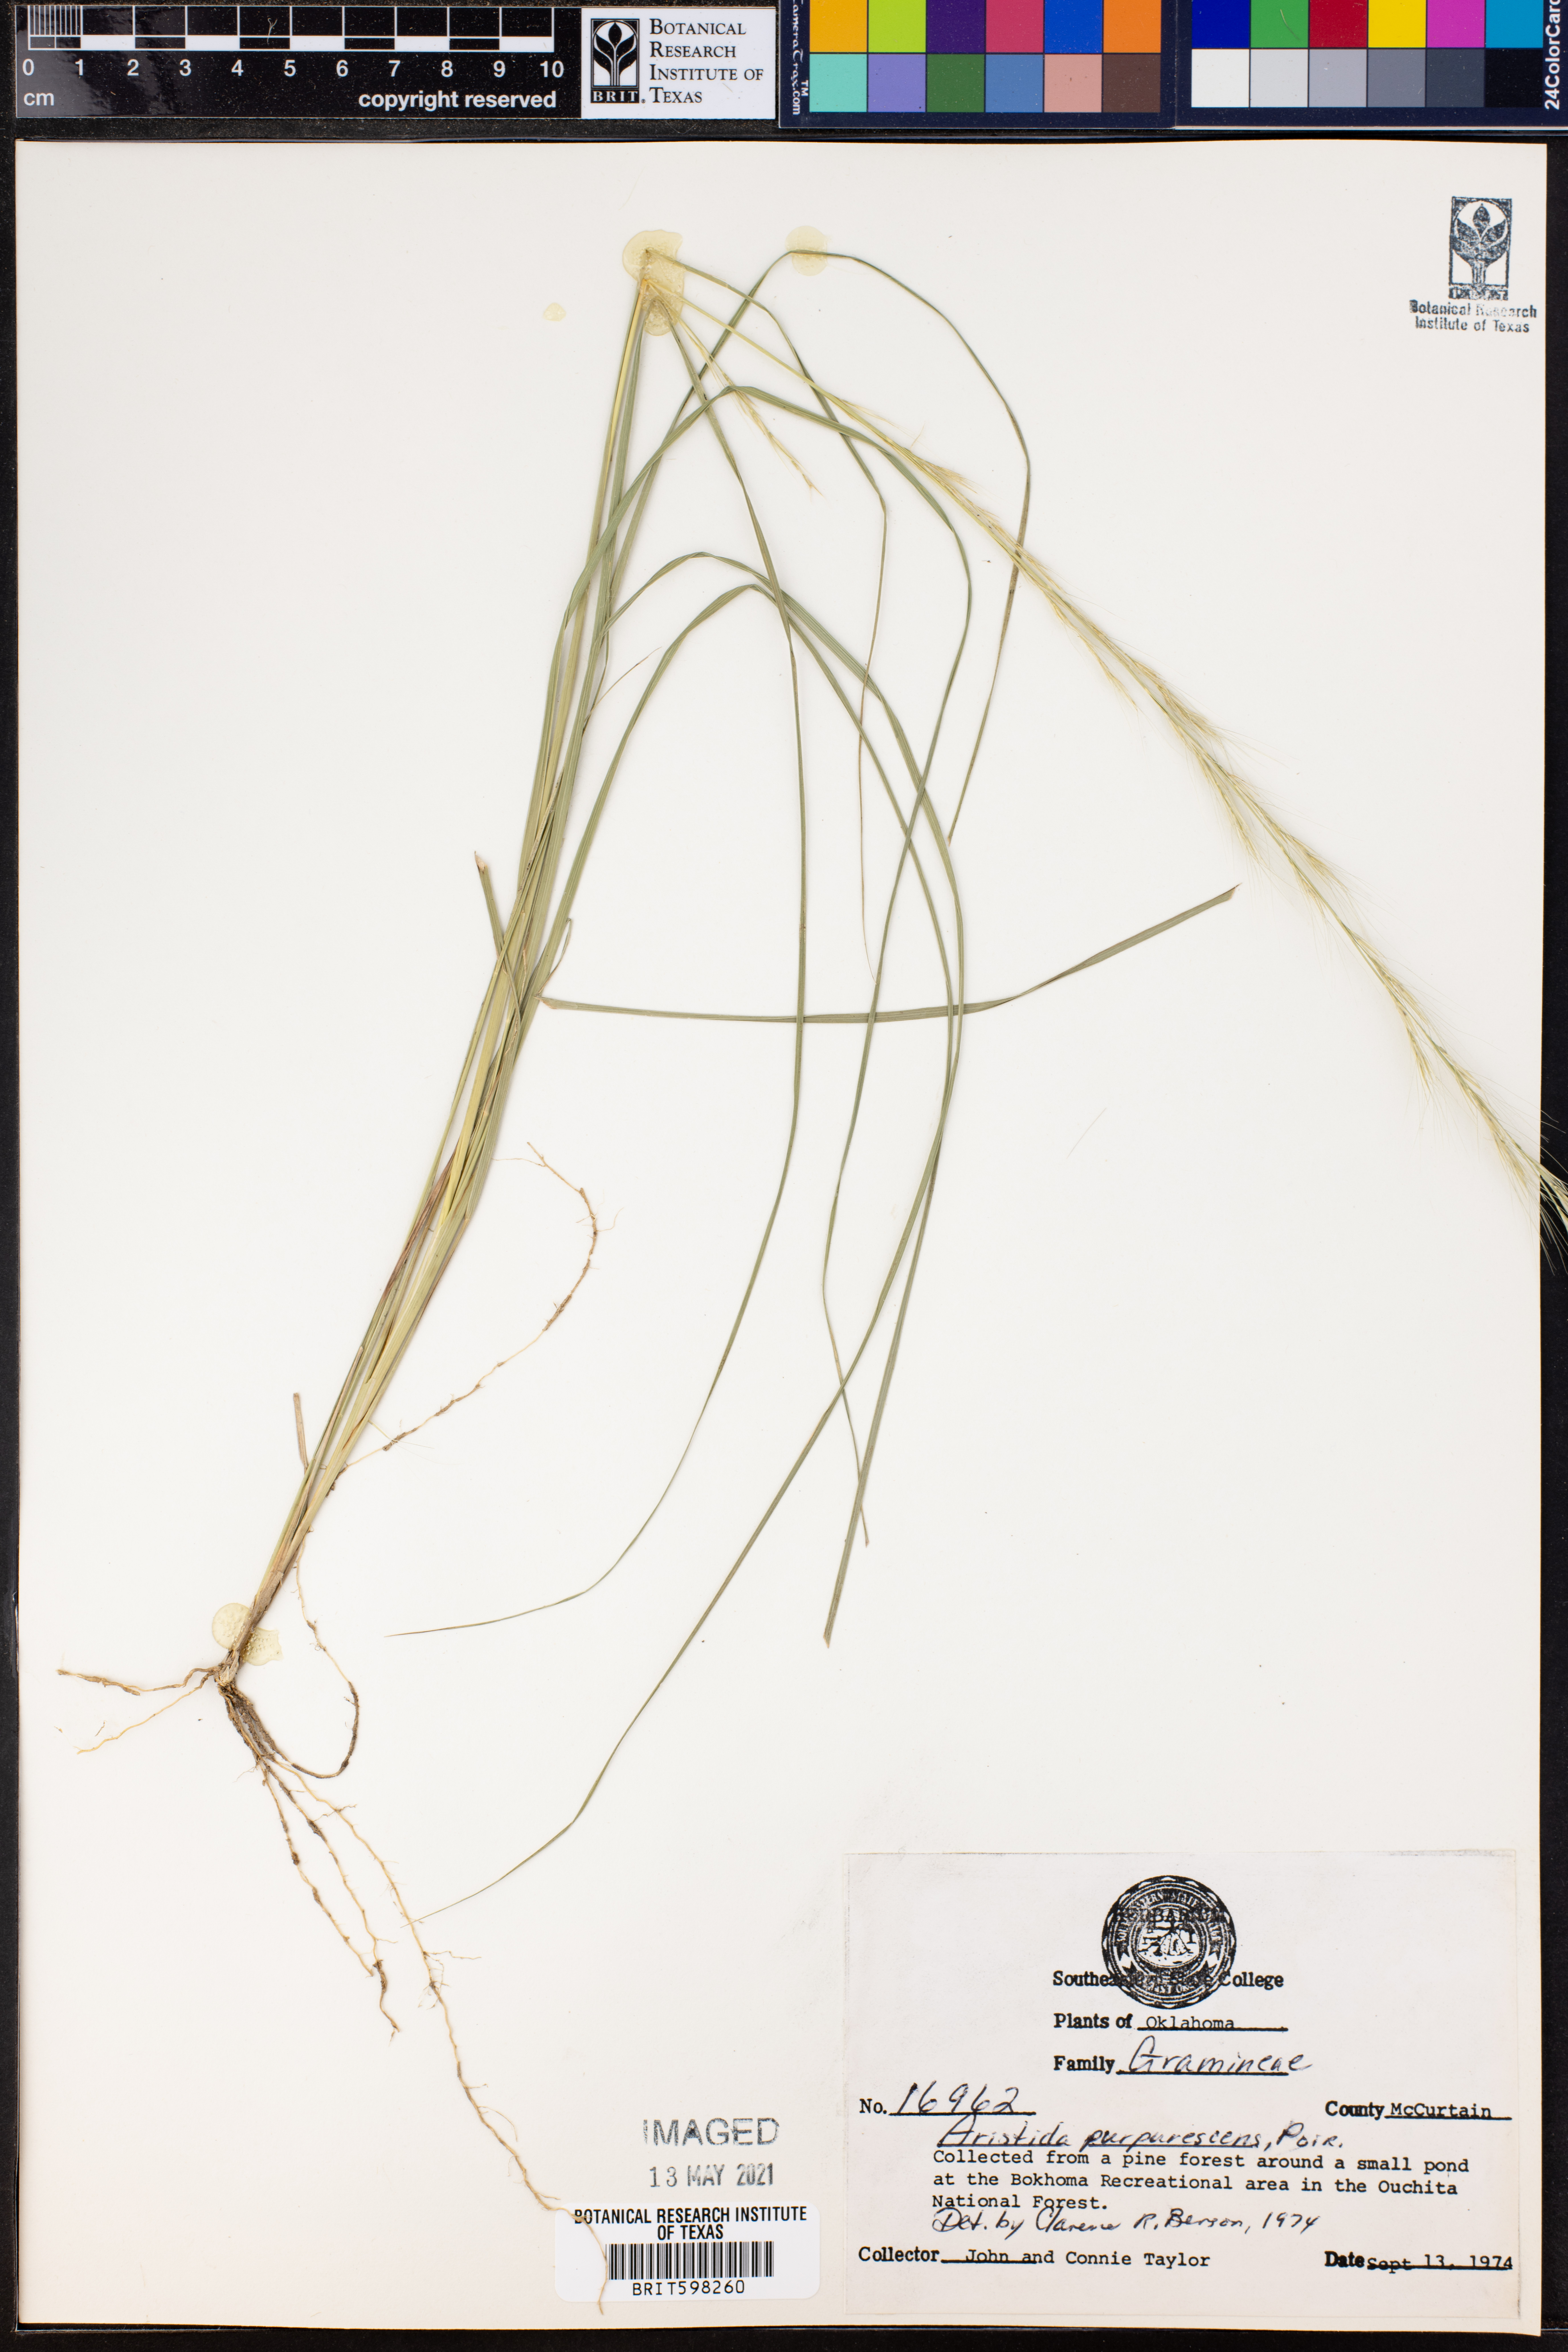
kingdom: Plantae
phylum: Tracheophyta
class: Liliopsida
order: Poales
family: Poaceae
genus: Aristida
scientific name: Aristida purpurascens
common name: Arrow-feather
